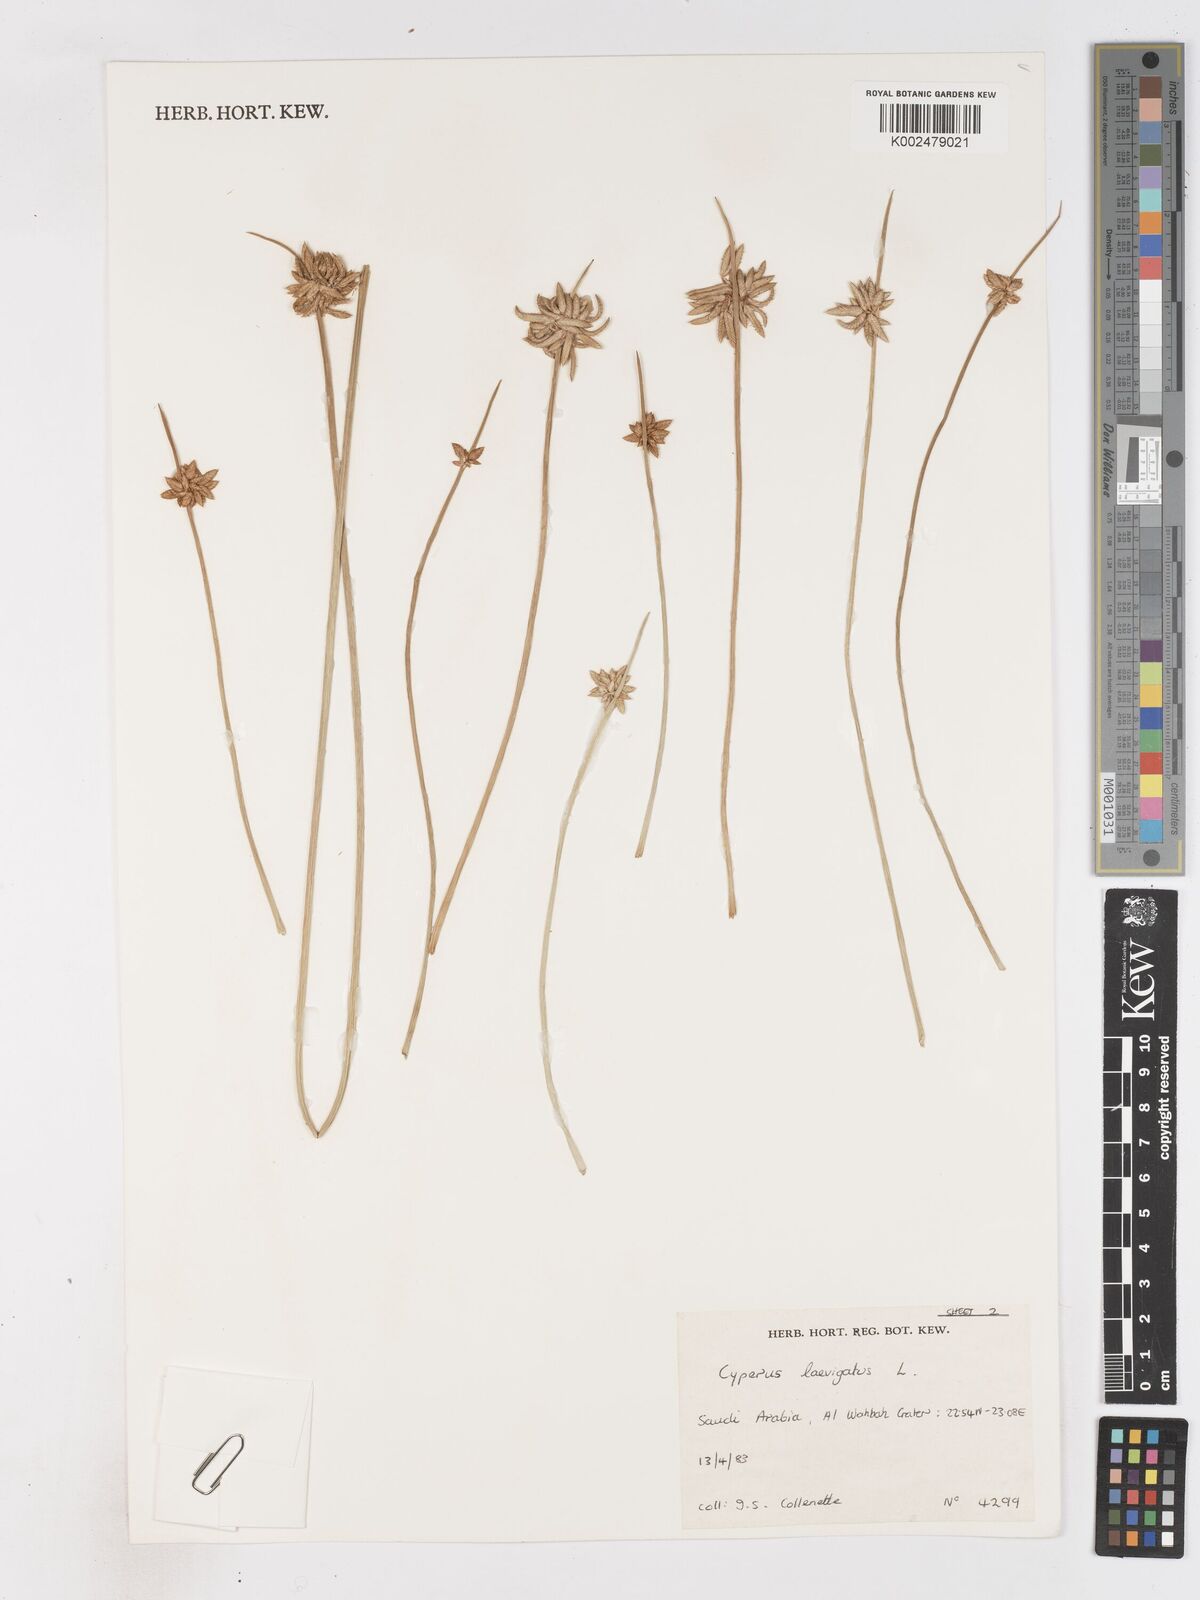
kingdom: Plantae
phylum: Tracheophyta
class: Liliopsida
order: Poales
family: Cyperaceae
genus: Cyperus
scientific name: Cyperus laevigatus
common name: Smooth flat sedge
